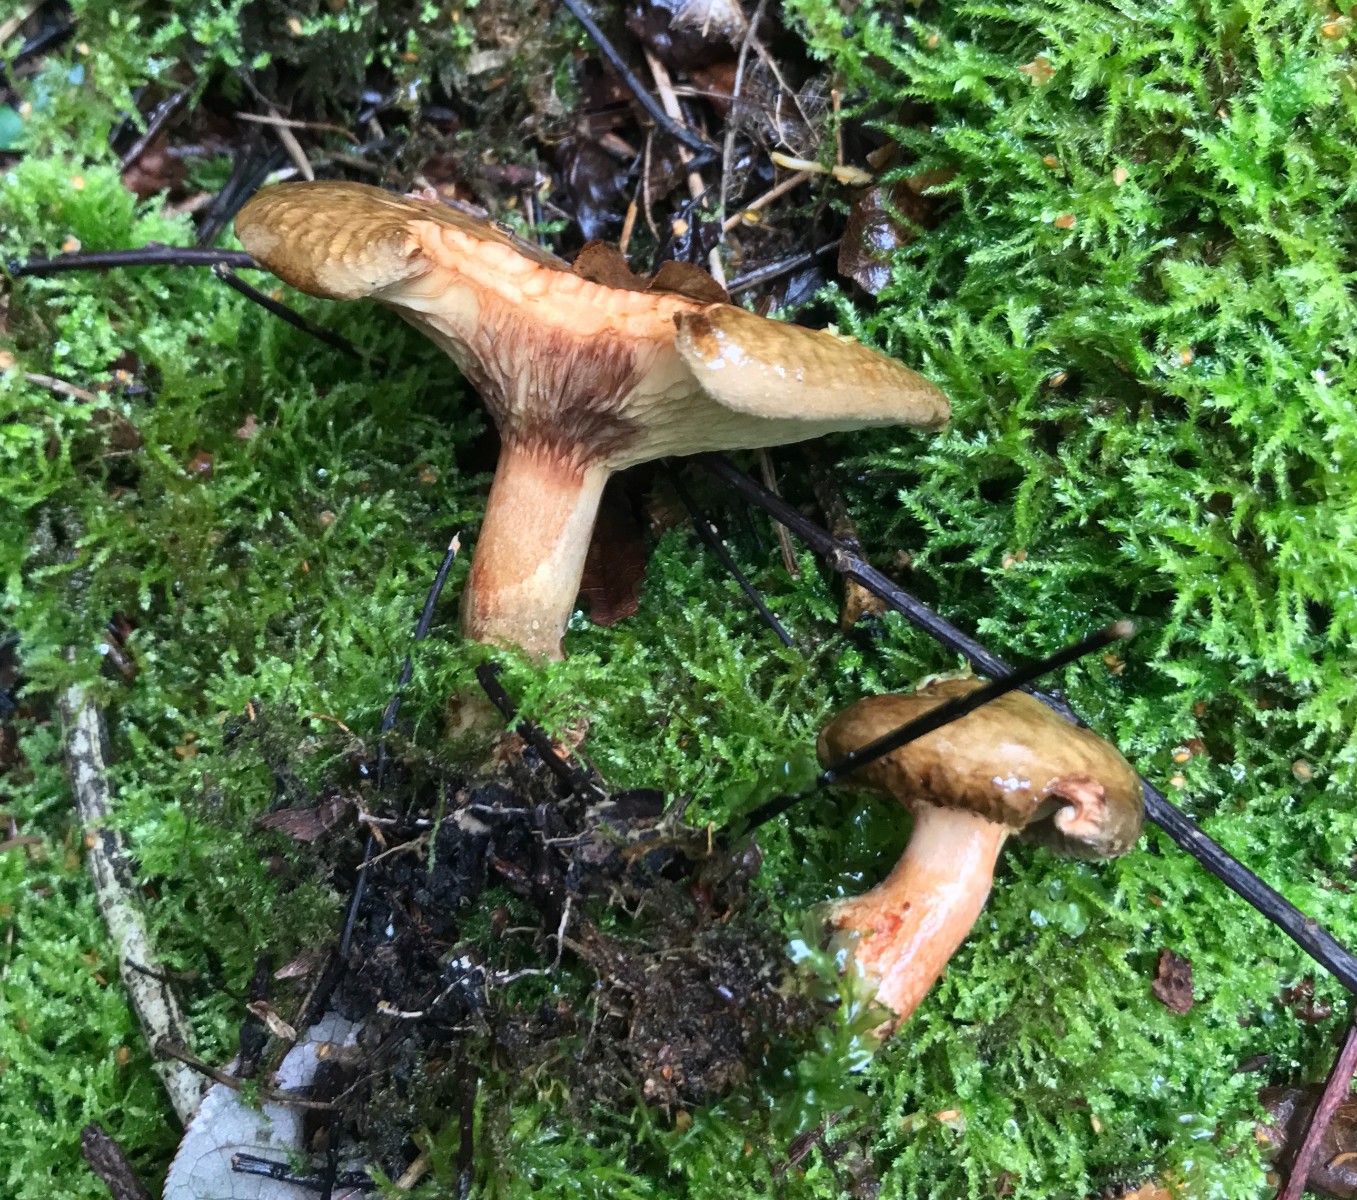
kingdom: Fungi
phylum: Basidiomycota
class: Agaricomycetes
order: Boletales
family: Paxillaceae
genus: Paxillus
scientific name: Paxillus involutus
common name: almindelig netbladhat
